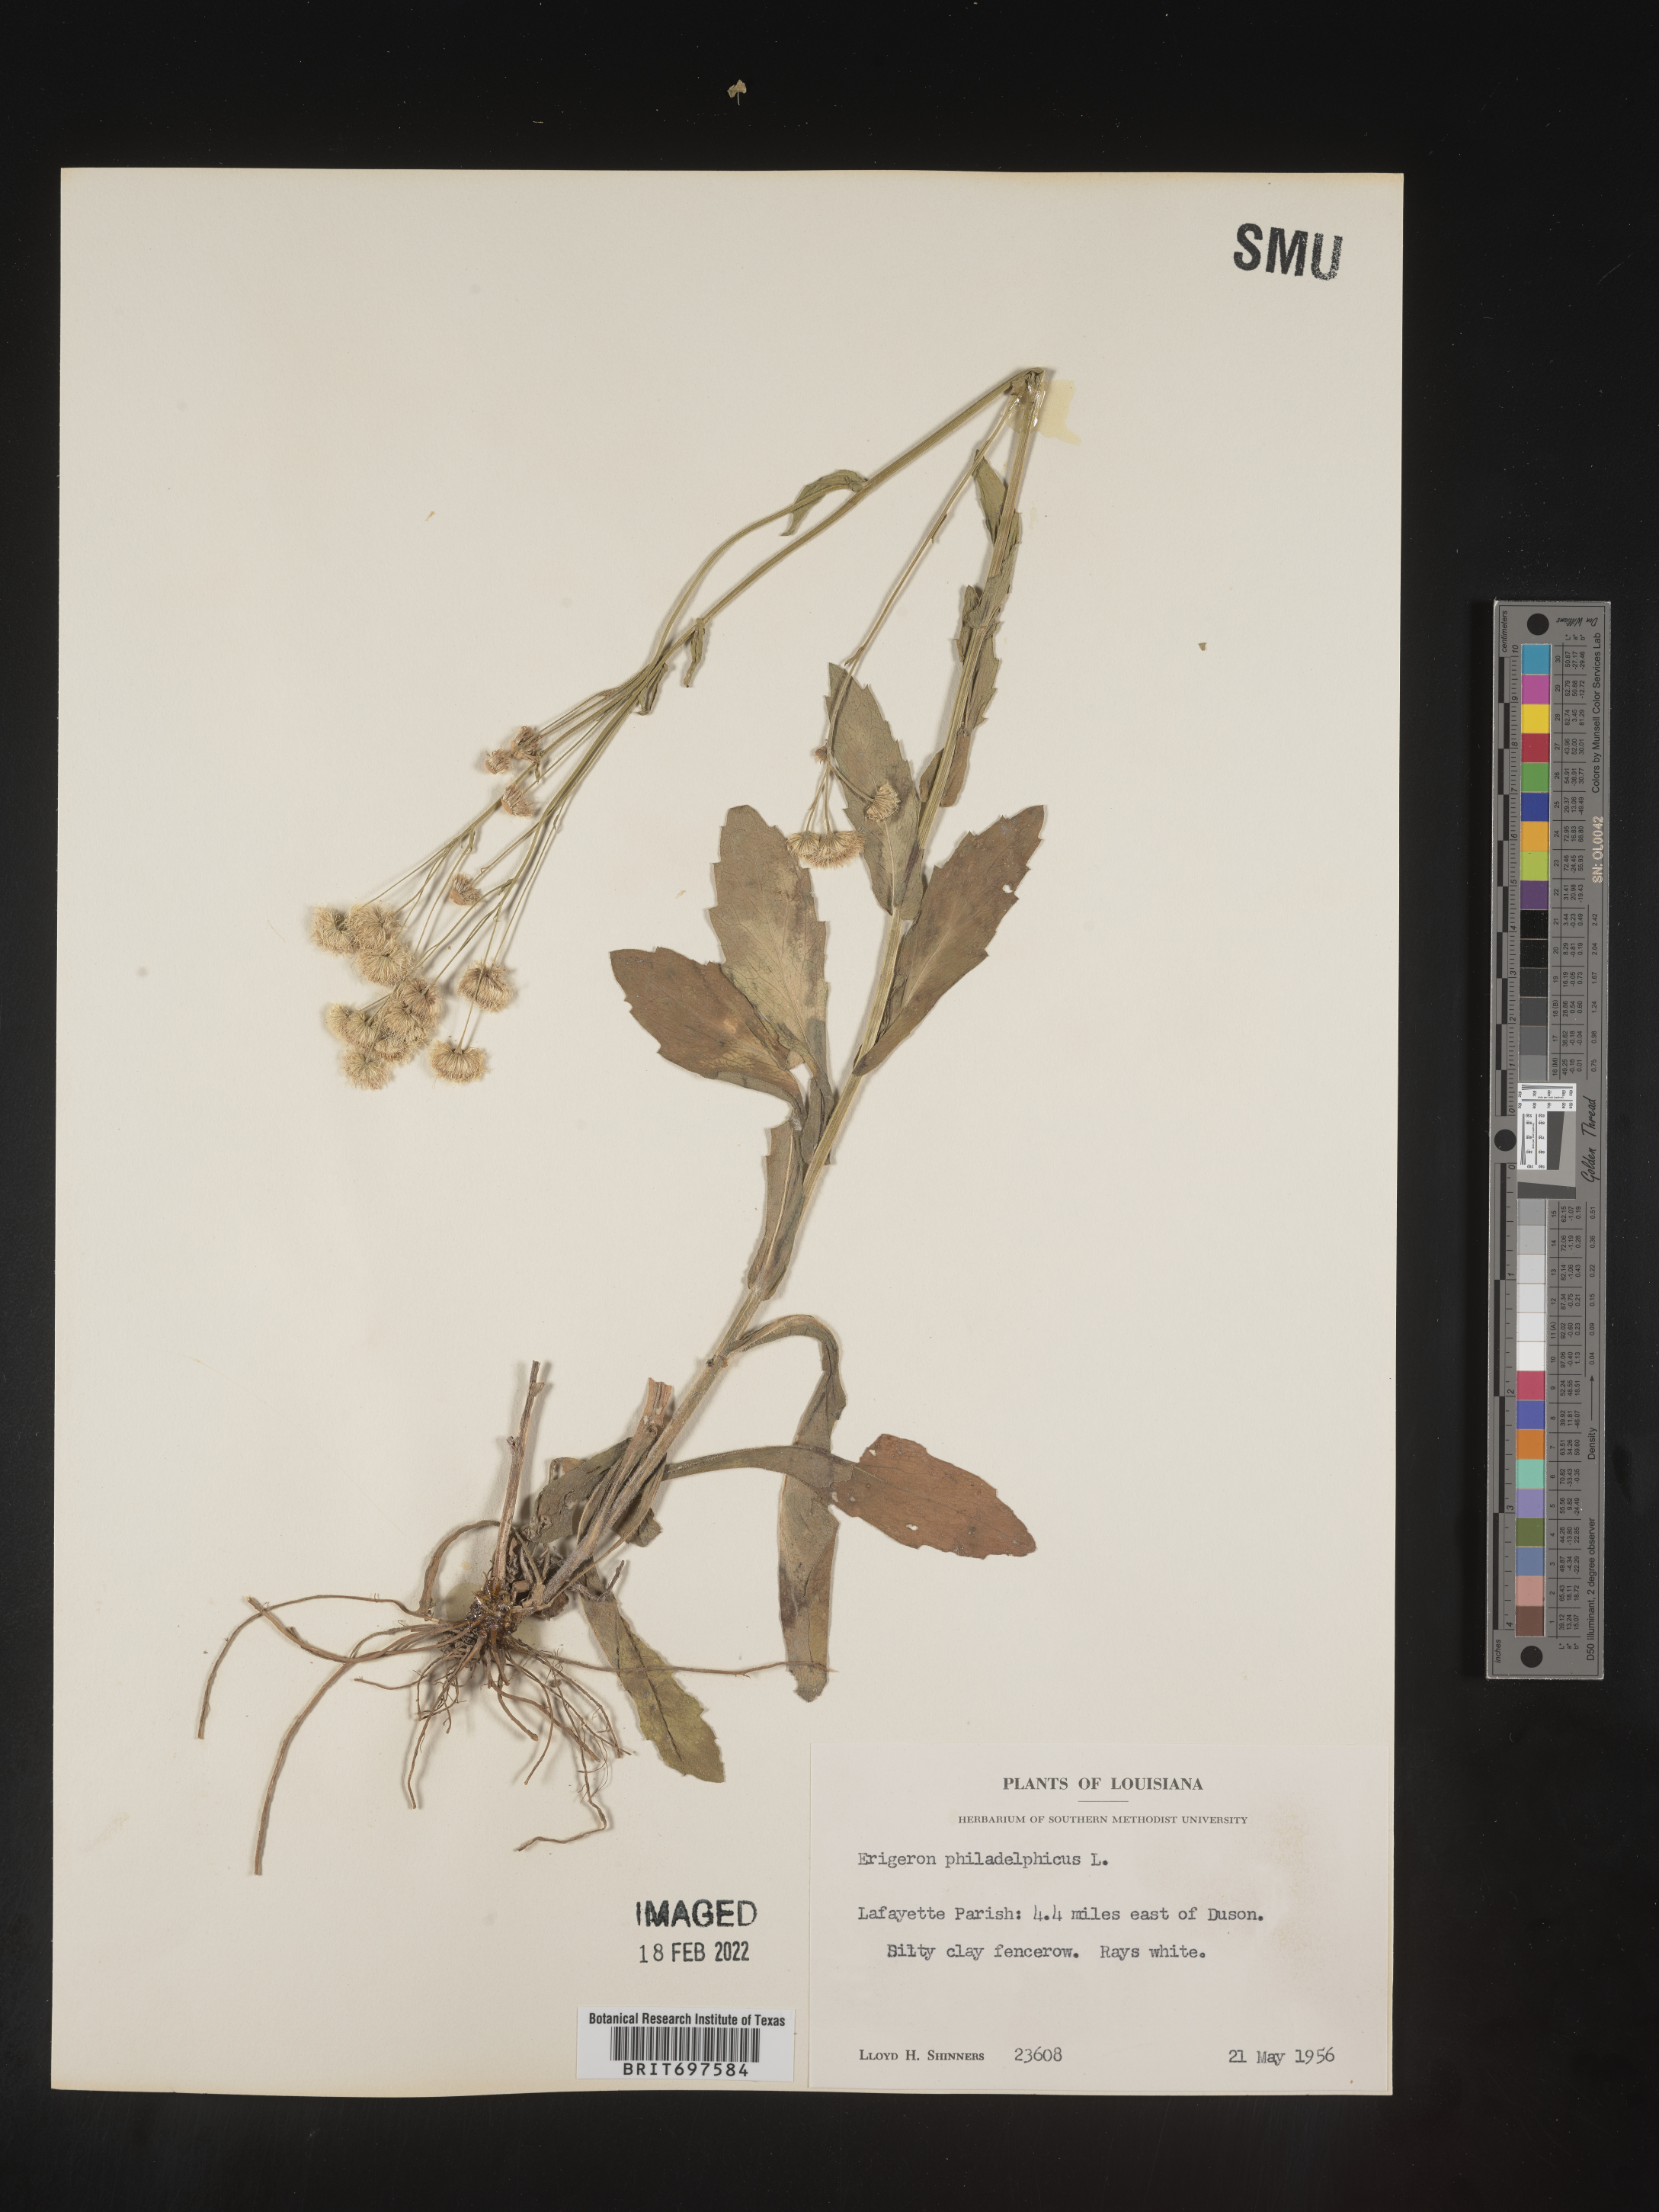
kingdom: Plantae
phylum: Tracheophyta
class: Magnoliopsida
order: Asterales
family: Asteraceae
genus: Erigeron
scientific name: Erigeron philadelphicus
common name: Robin's-plantain
